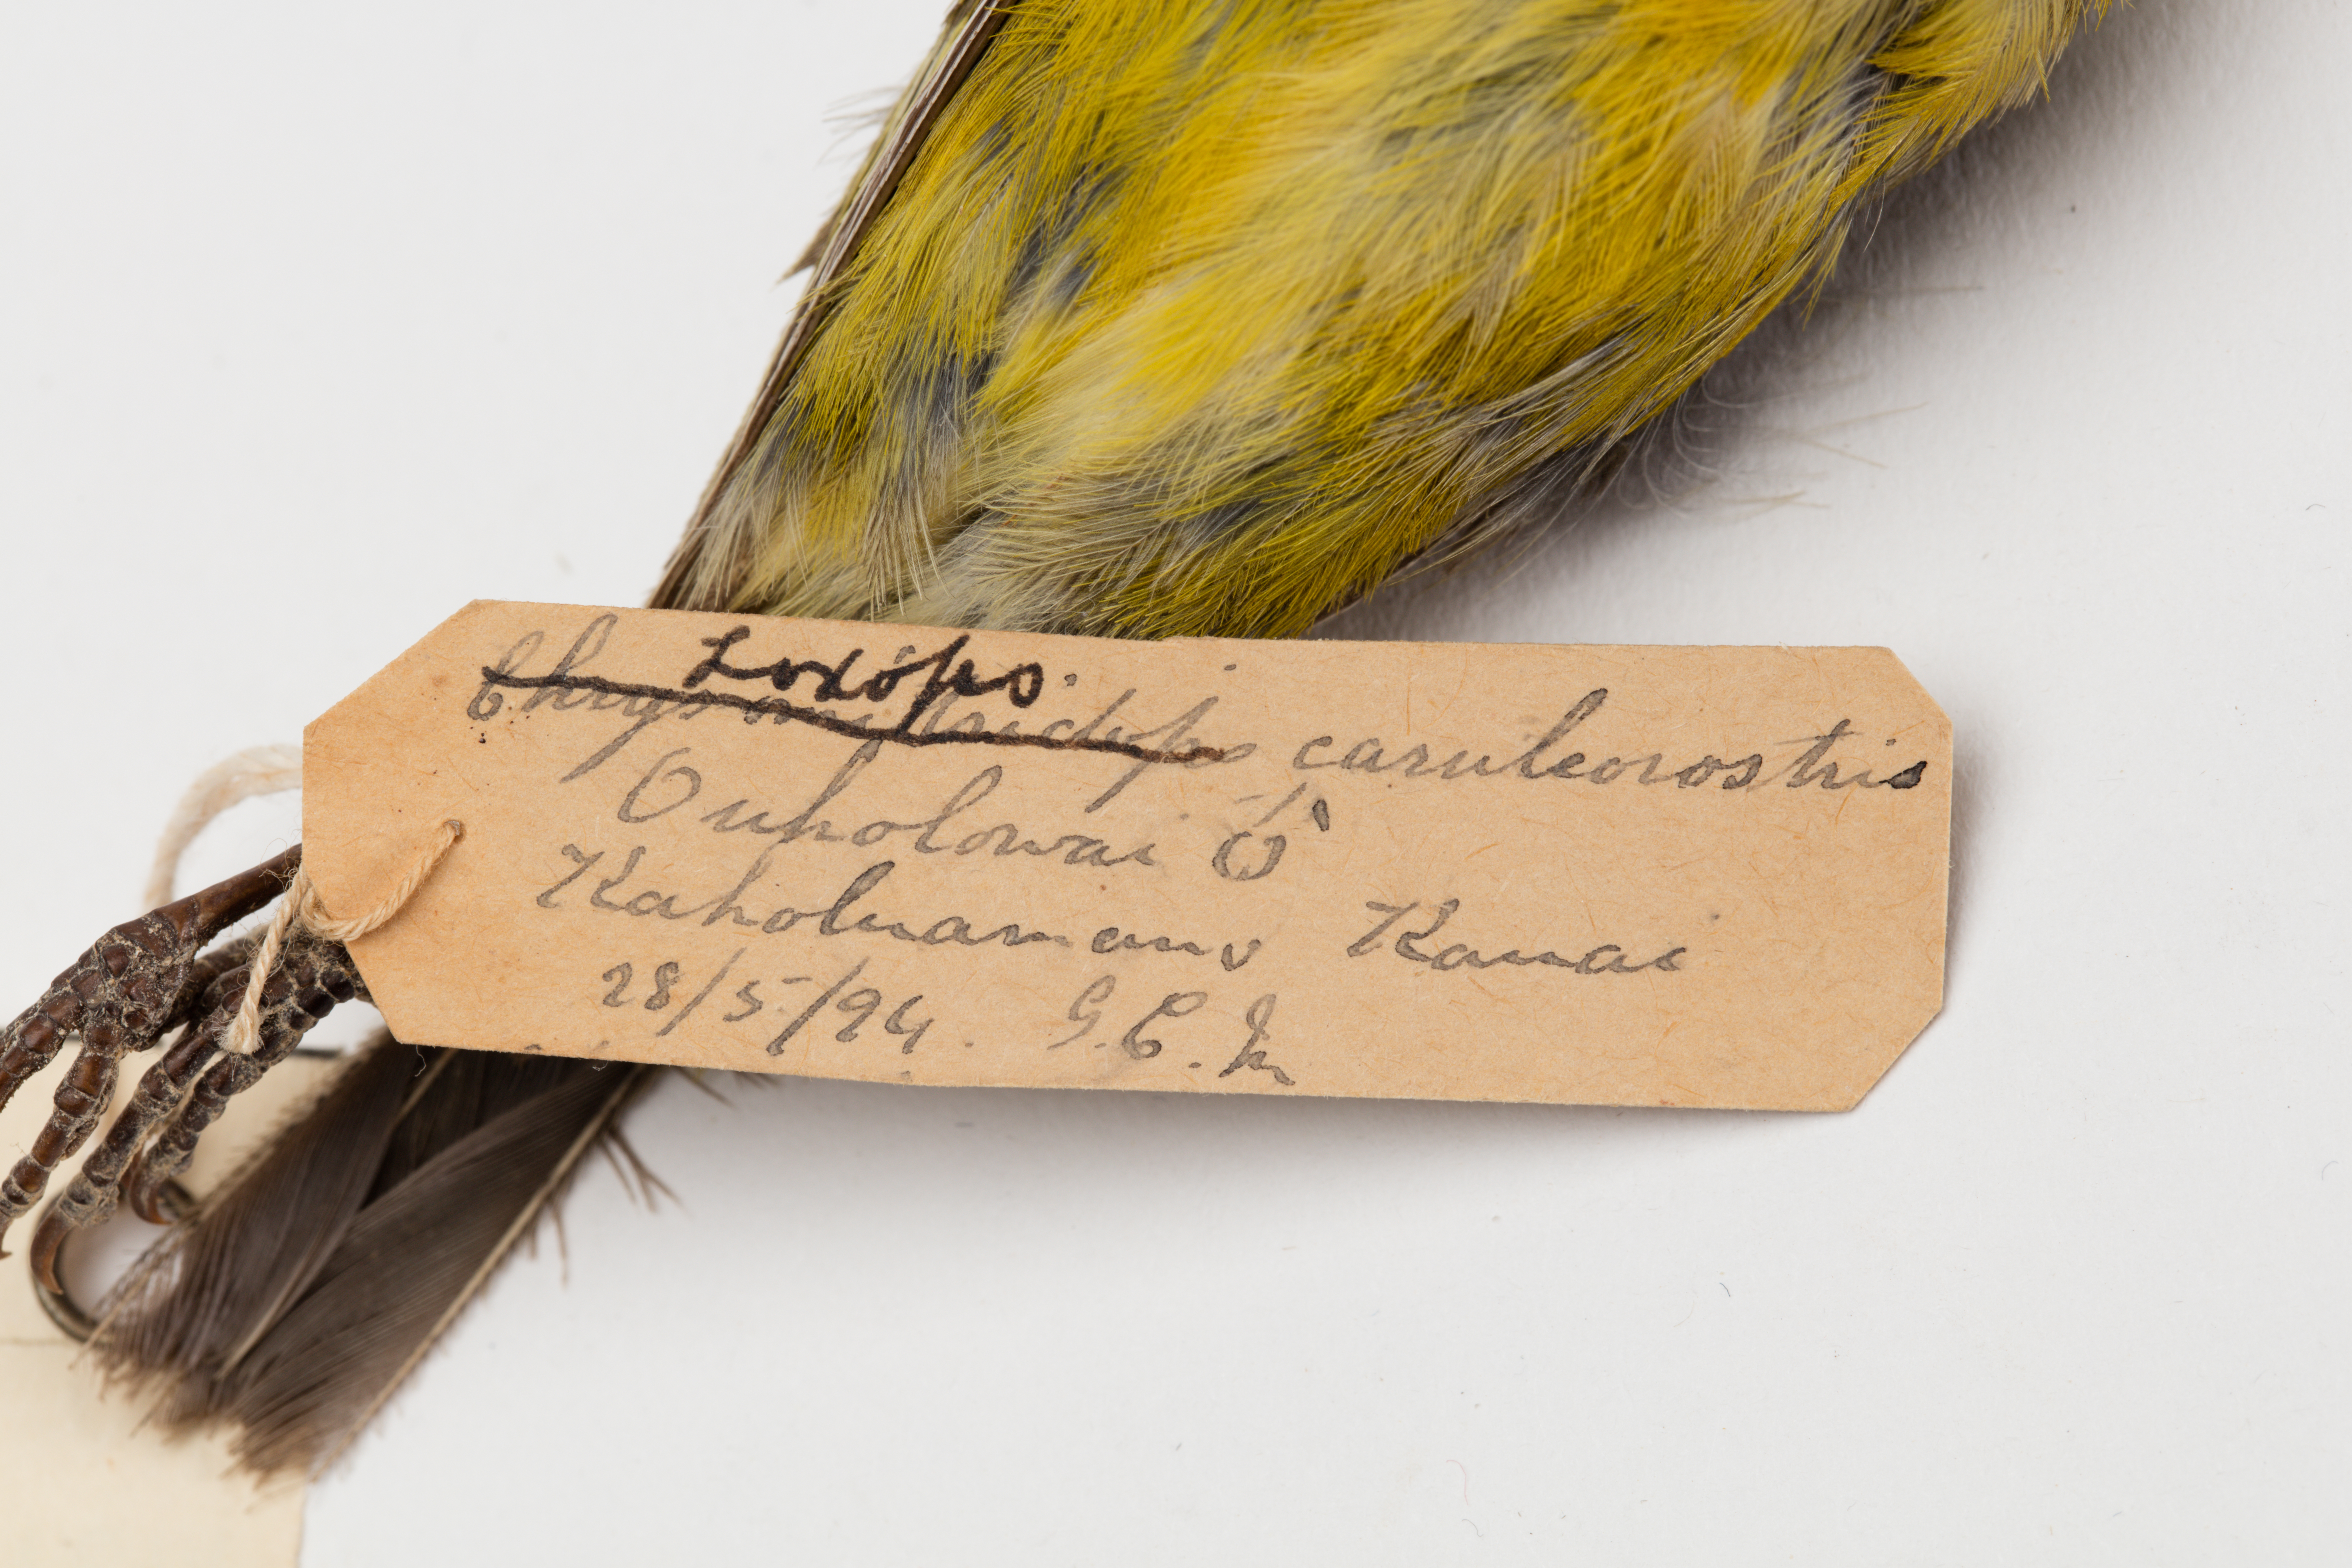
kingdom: Animalia
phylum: Chordata
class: Aves
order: Passeriformes
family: Fringillidae
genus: Loxops
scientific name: Loxops coccineus
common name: Hawaii akepa
